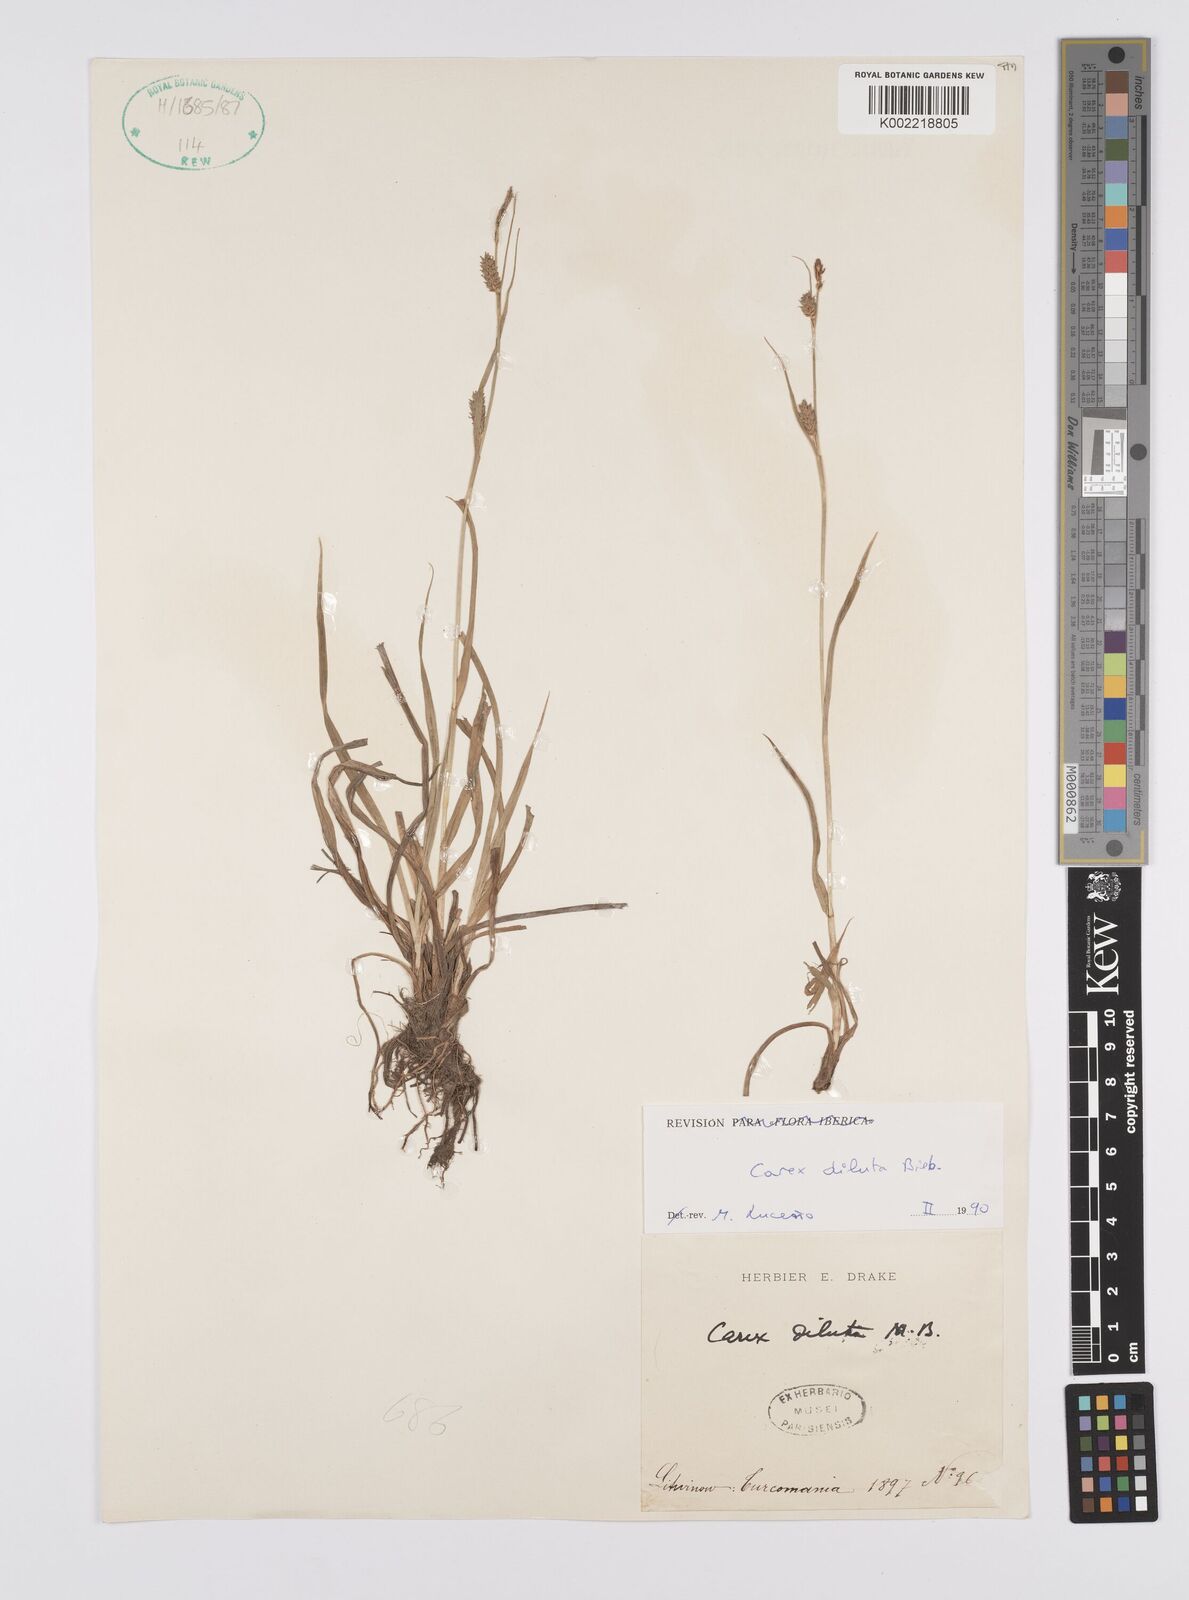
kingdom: Plantae
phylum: Tracheophyta
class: Liliopsida
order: Poales
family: Cyperaceae
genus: Carex
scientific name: Carex diluta
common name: Sedge
